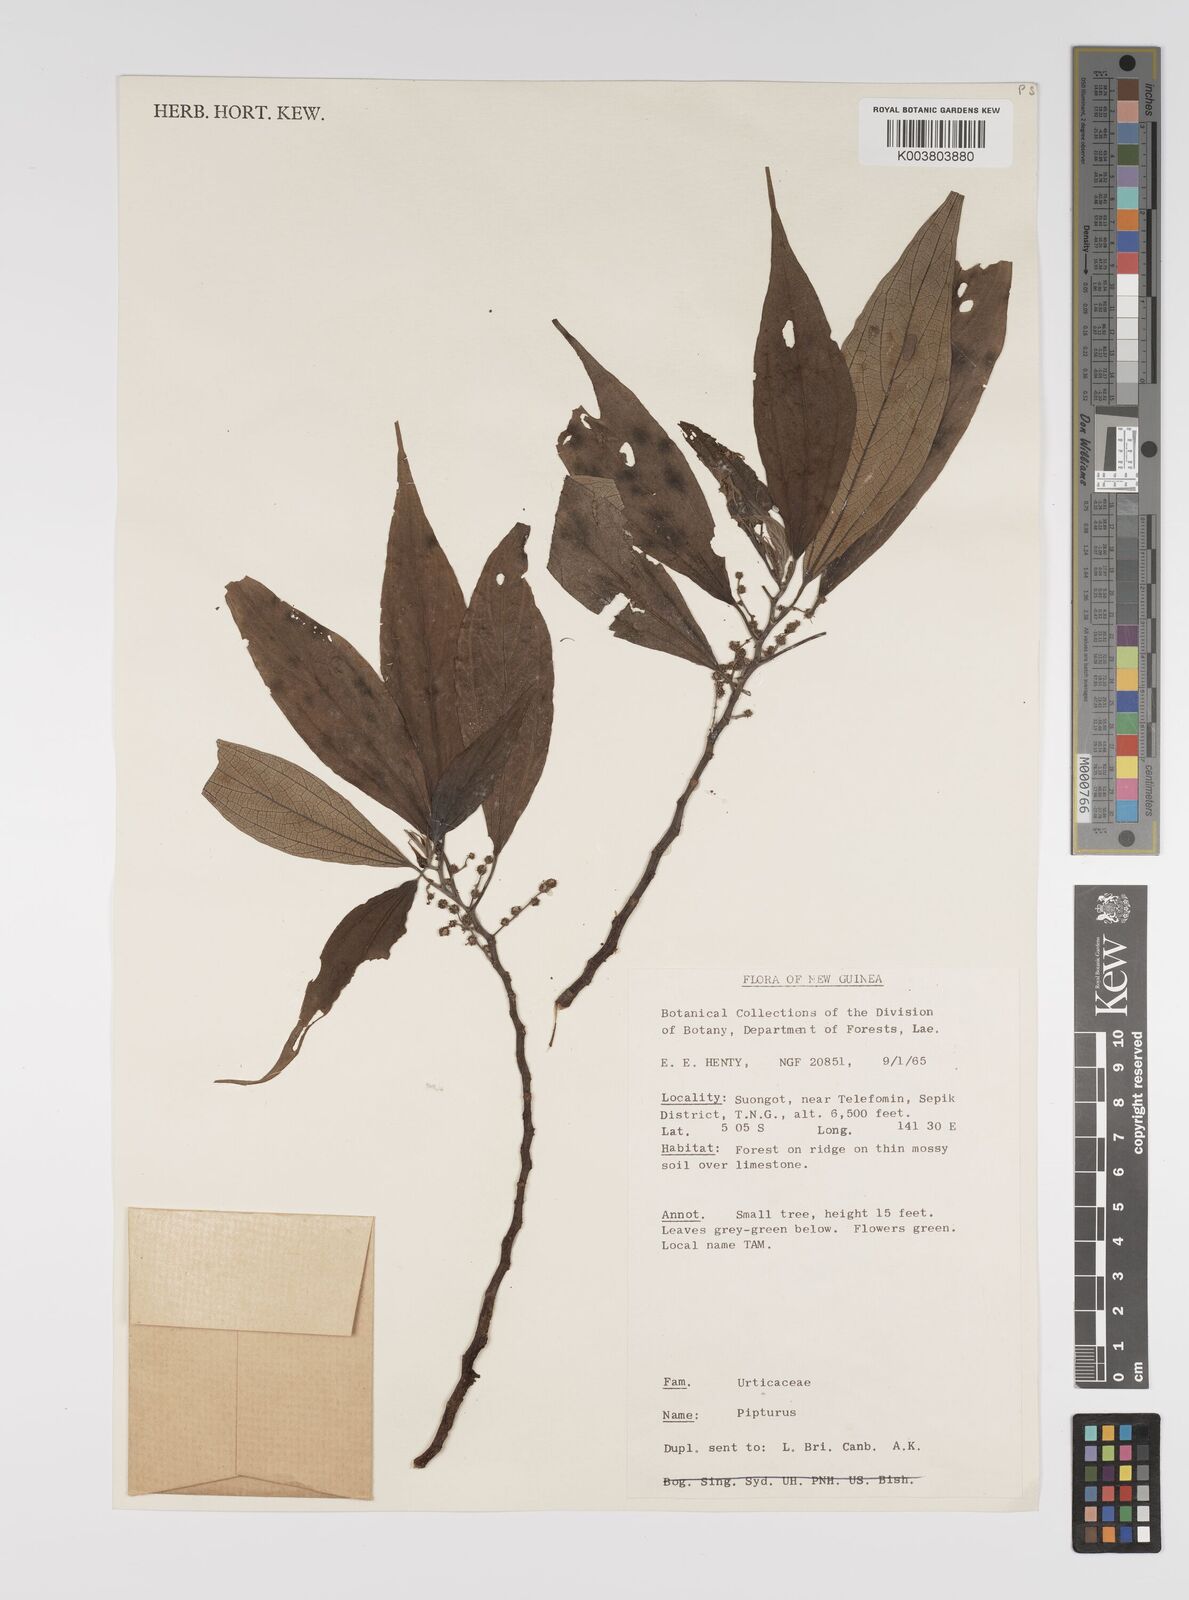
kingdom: Plantae
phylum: Tracheophyta
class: Magnoliopsida
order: Rosales
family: Urticaceae
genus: Pipturus
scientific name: Pipturus argenteus
